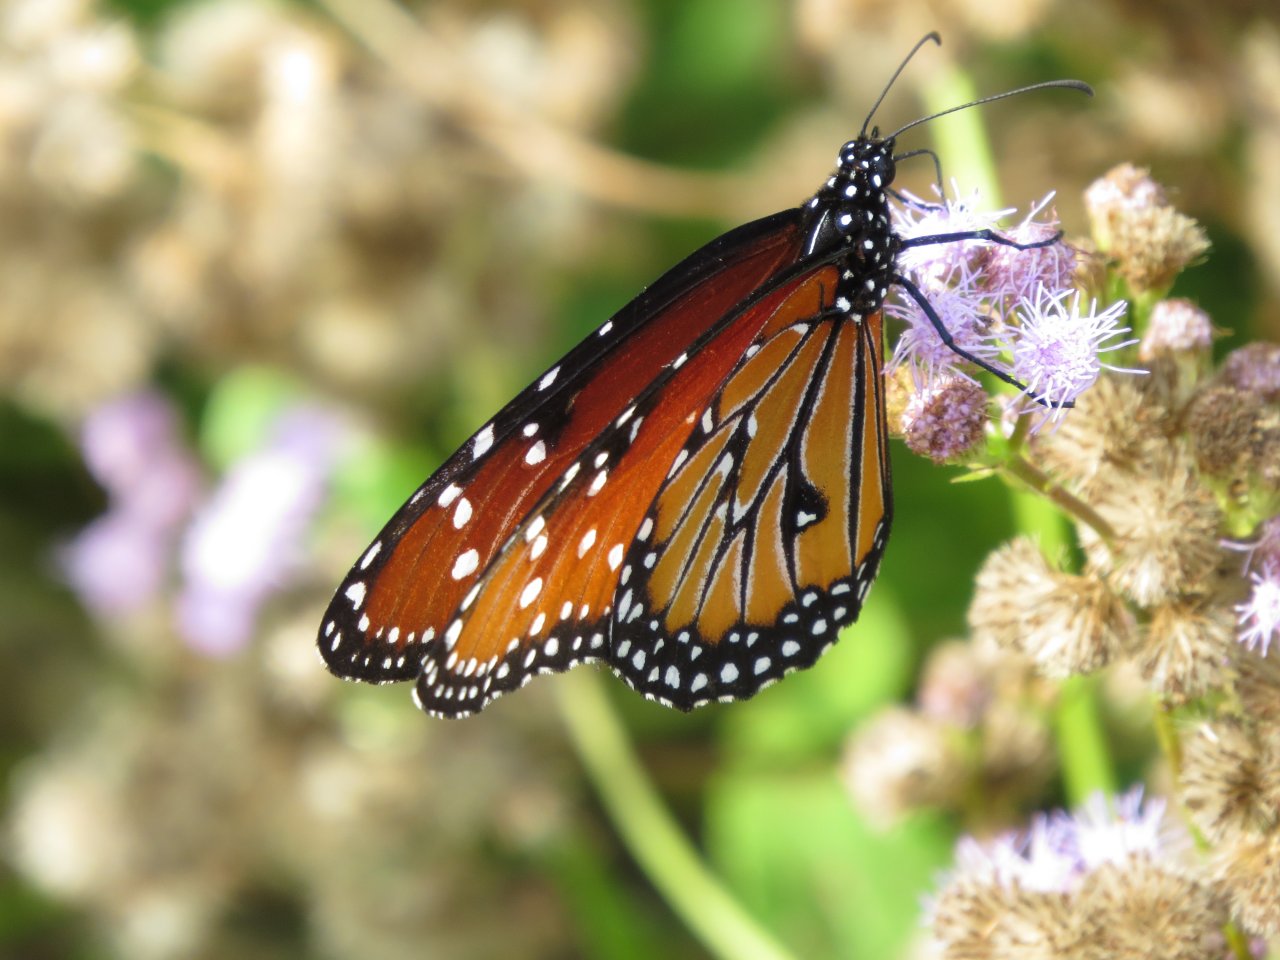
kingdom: Animalia
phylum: Arthropoda
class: Insecta
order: Lepidoptera
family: Nymphalidae
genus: Danaus
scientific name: Danaus gilippus
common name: Queen
